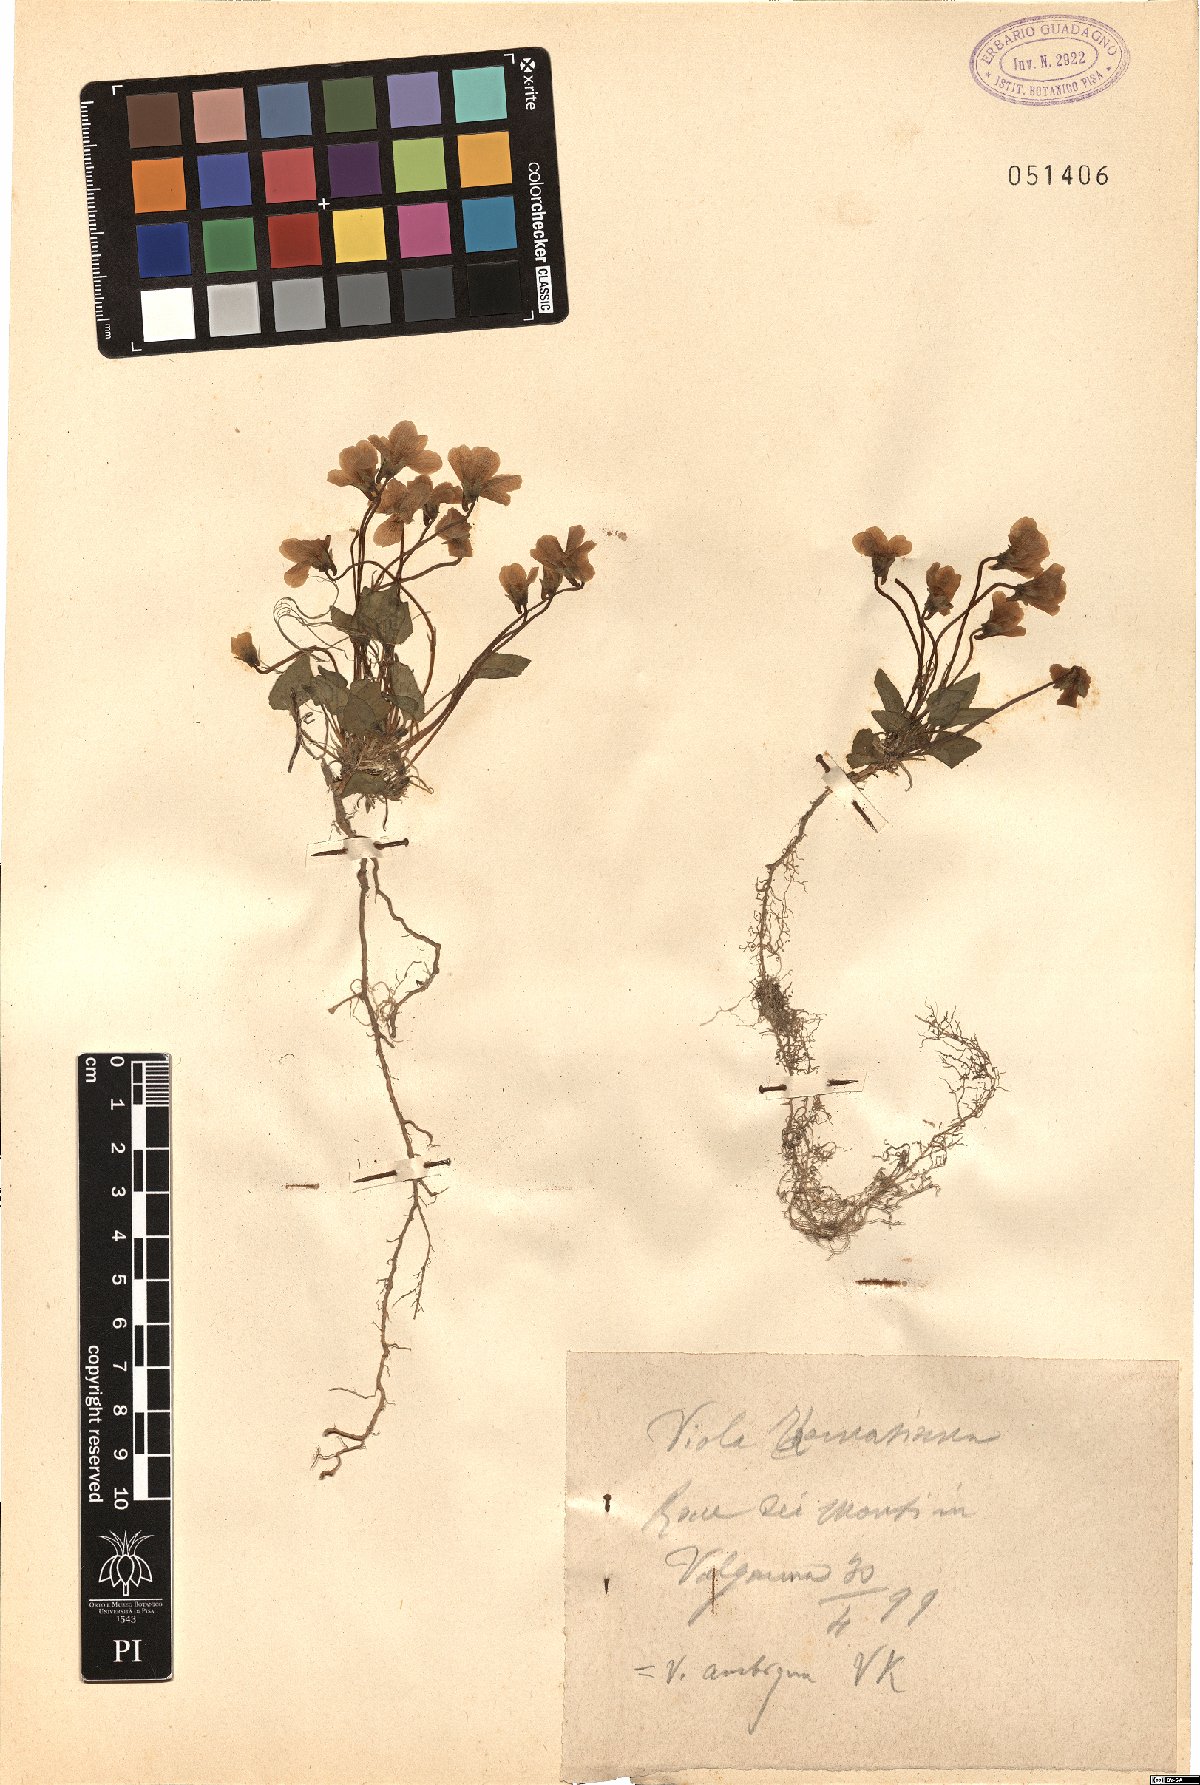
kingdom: Plantae
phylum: Tracheophyta
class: Magnoliopsida
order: Malpighiales
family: Violaceae
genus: Viola
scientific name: Viola ambigua
